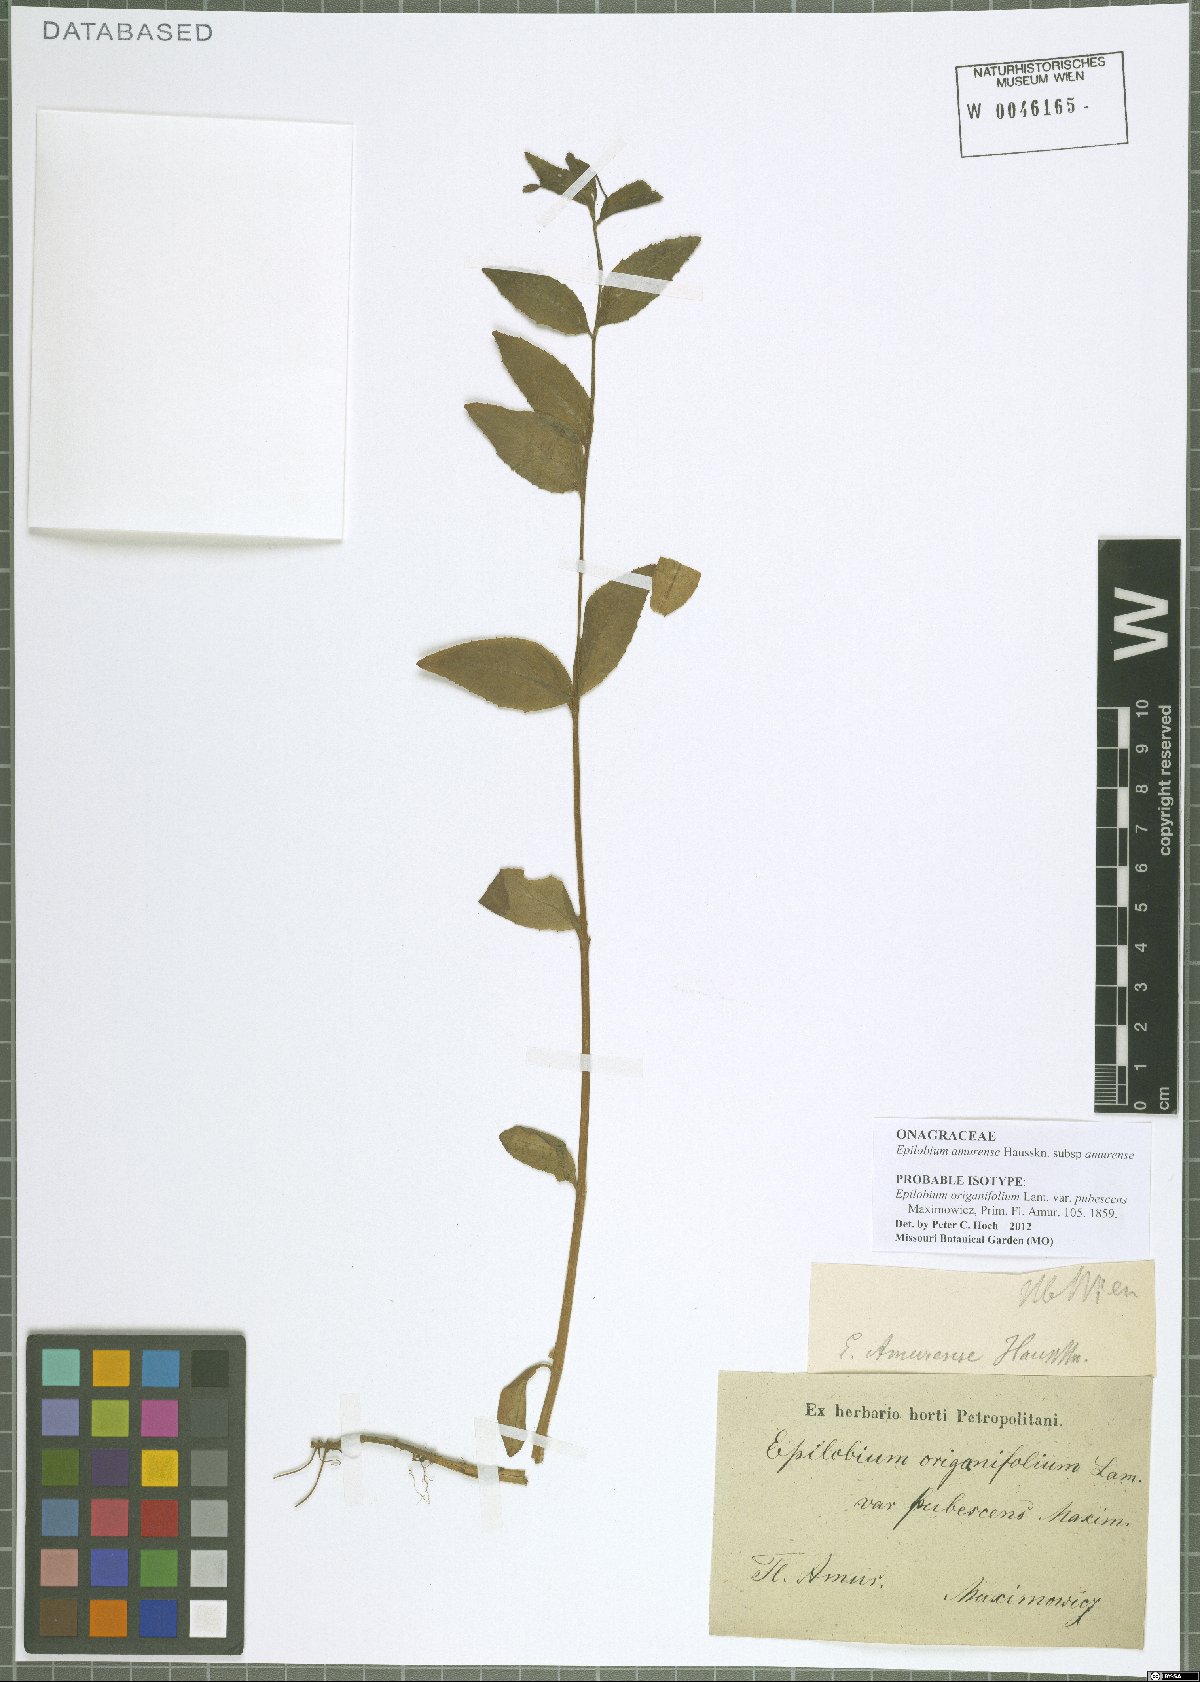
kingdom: Plantae
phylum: Tracheophyta
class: Magnoliopsida
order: Myrtales
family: Onagraceae
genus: Epilobium
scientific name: Epilobium amurense
